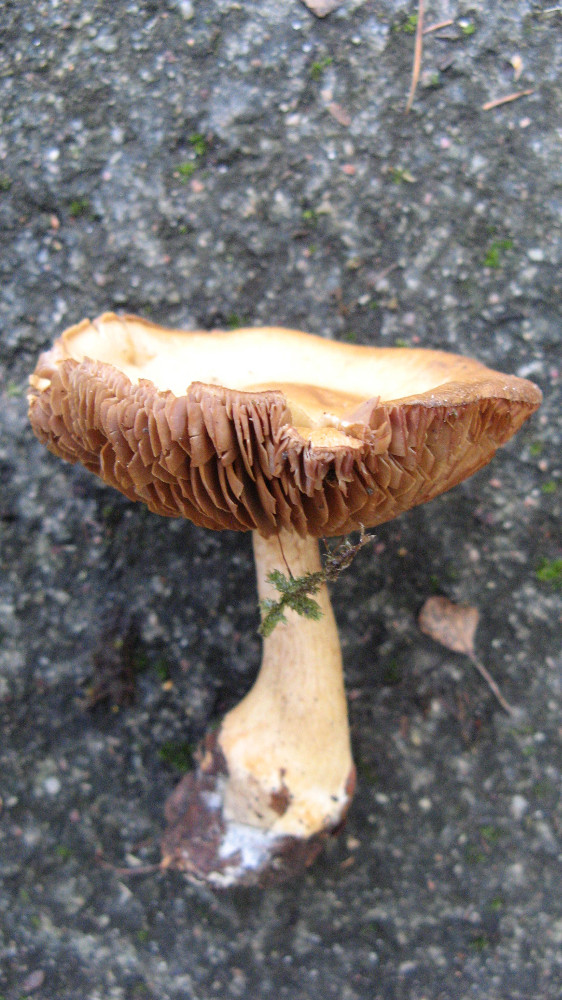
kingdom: Fungi
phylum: Basidiomycota
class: Agaricomycetes
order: Agaricales
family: Cortinariaceae
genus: Cortinarius
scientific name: Cortinarius
